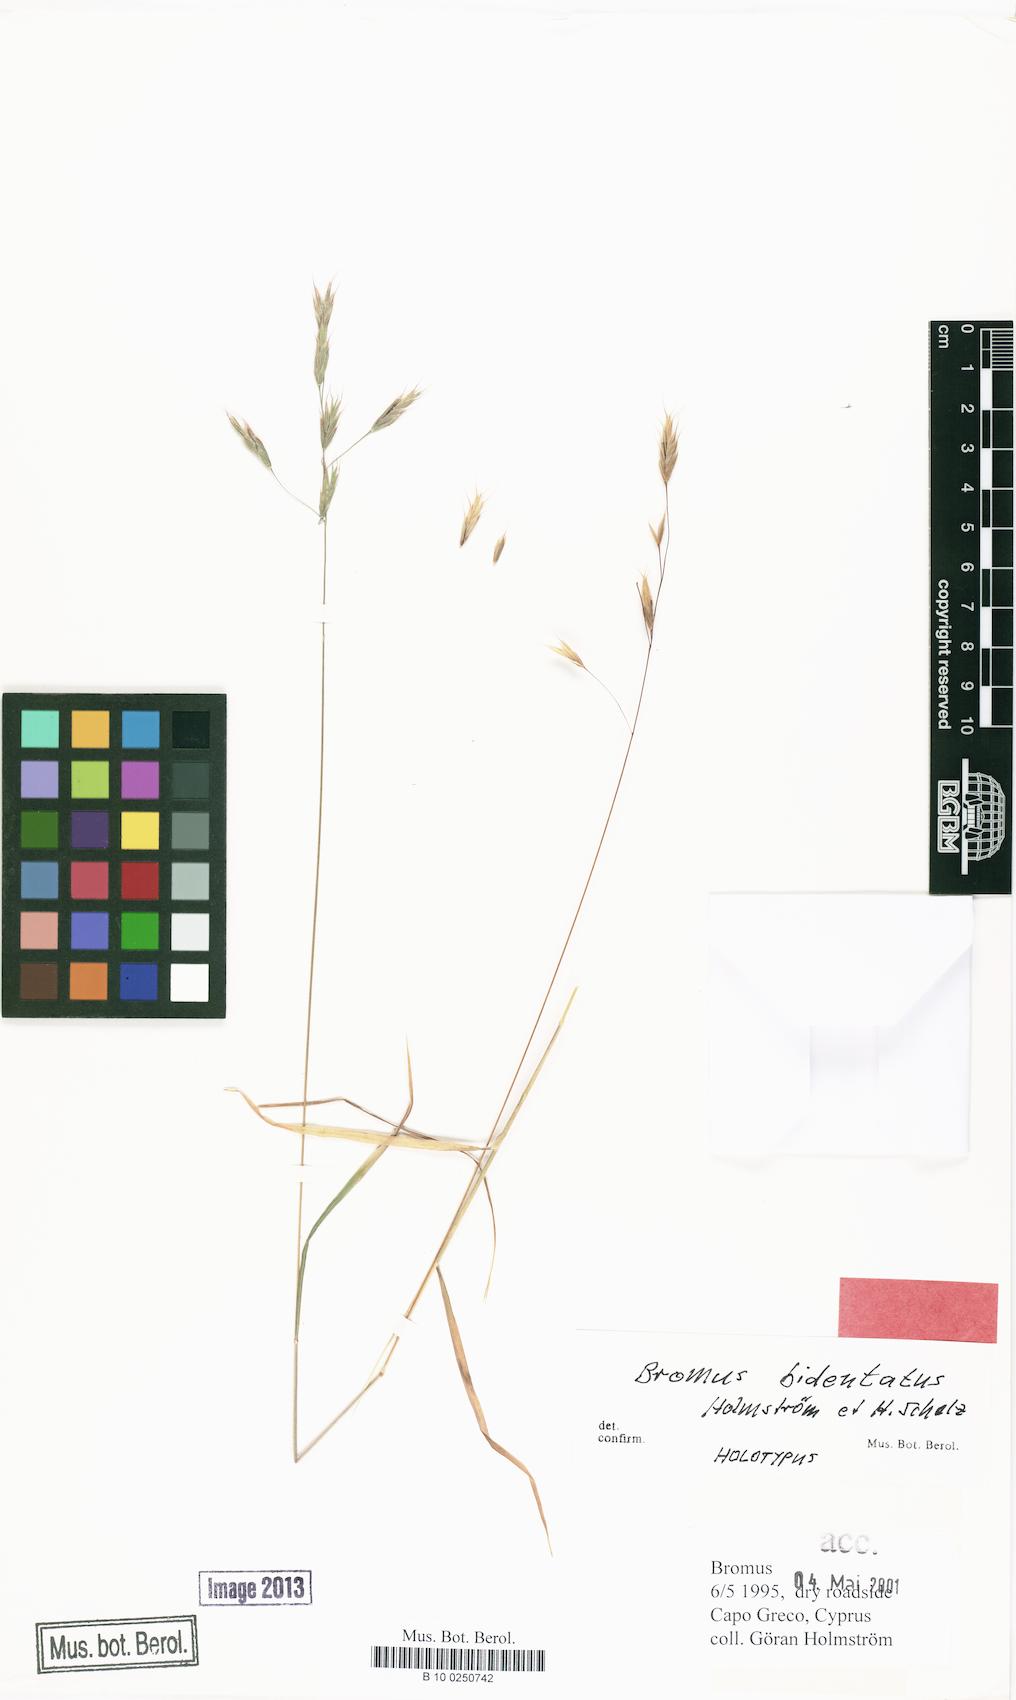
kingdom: Plantae
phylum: Tracheophyta
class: Liliopsida
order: Poales
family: Poaceae
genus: Bromus
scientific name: Bromus lepidus
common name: Slender soft-brome
